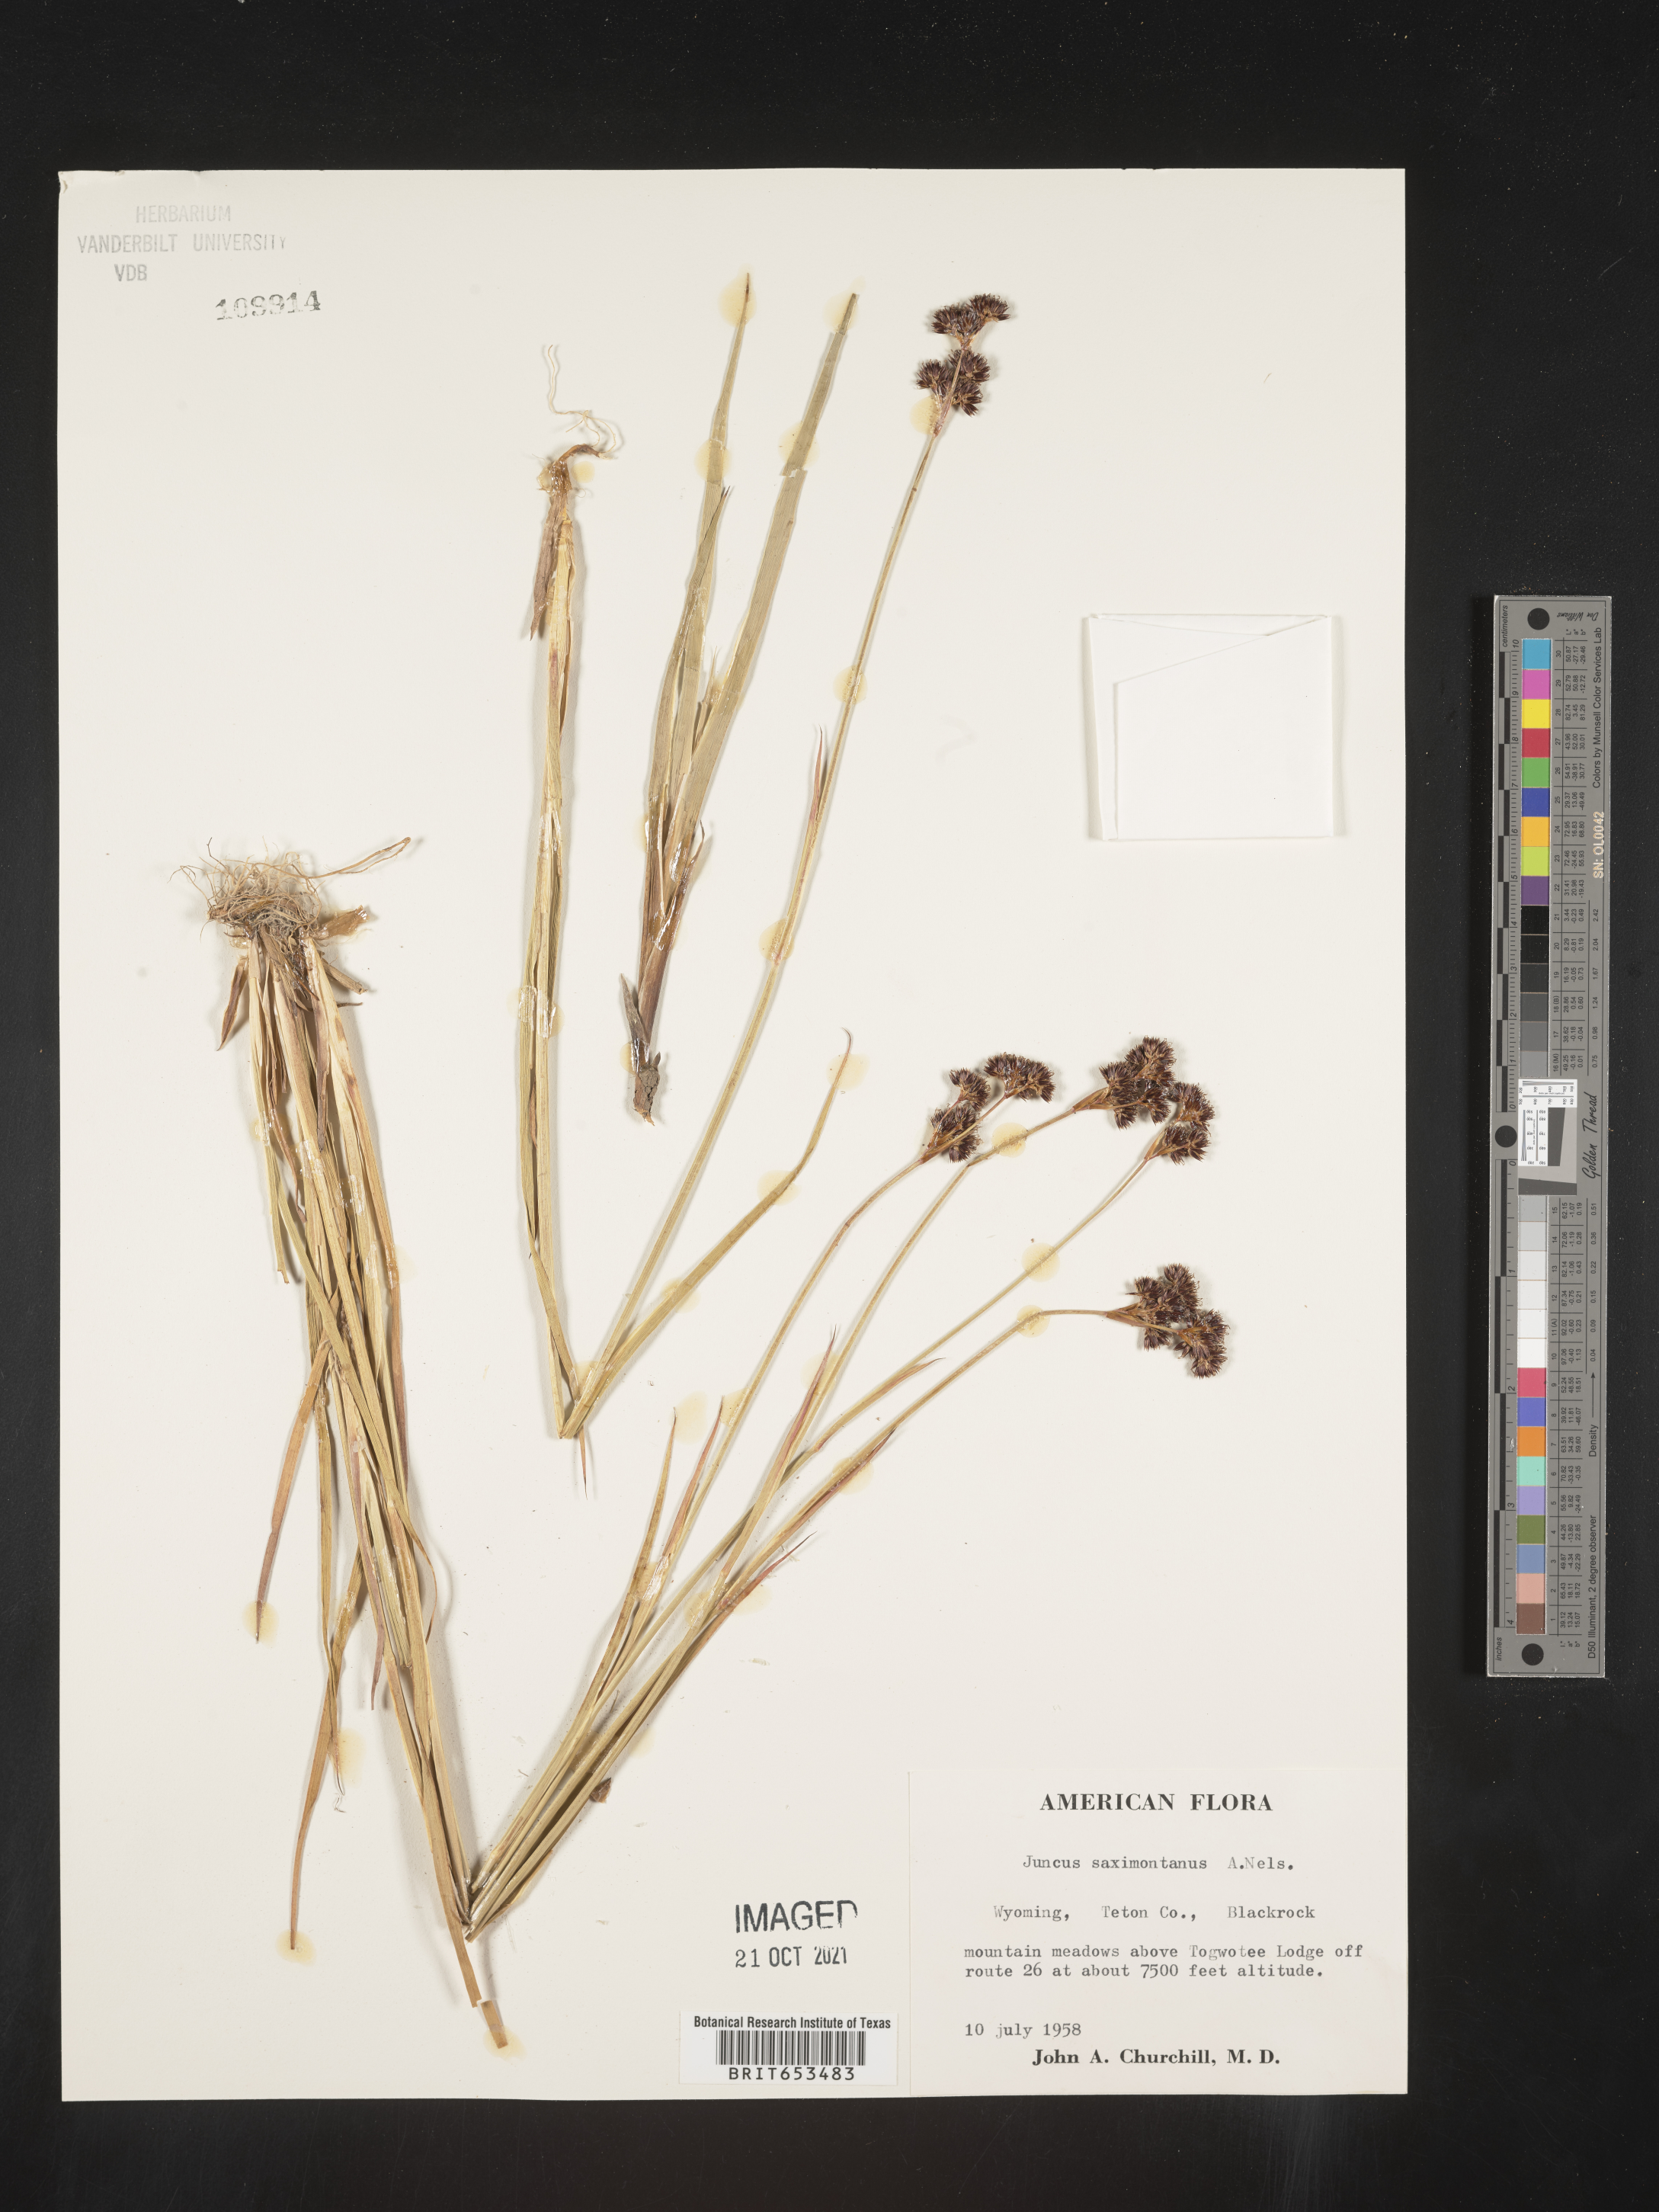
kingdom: Plantae
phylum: Tracheophyta
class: Liliopsida
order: Poales
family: Juncaceae
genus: Juncus
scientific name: Juncus saximontanus
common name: Rocky mountain rush
